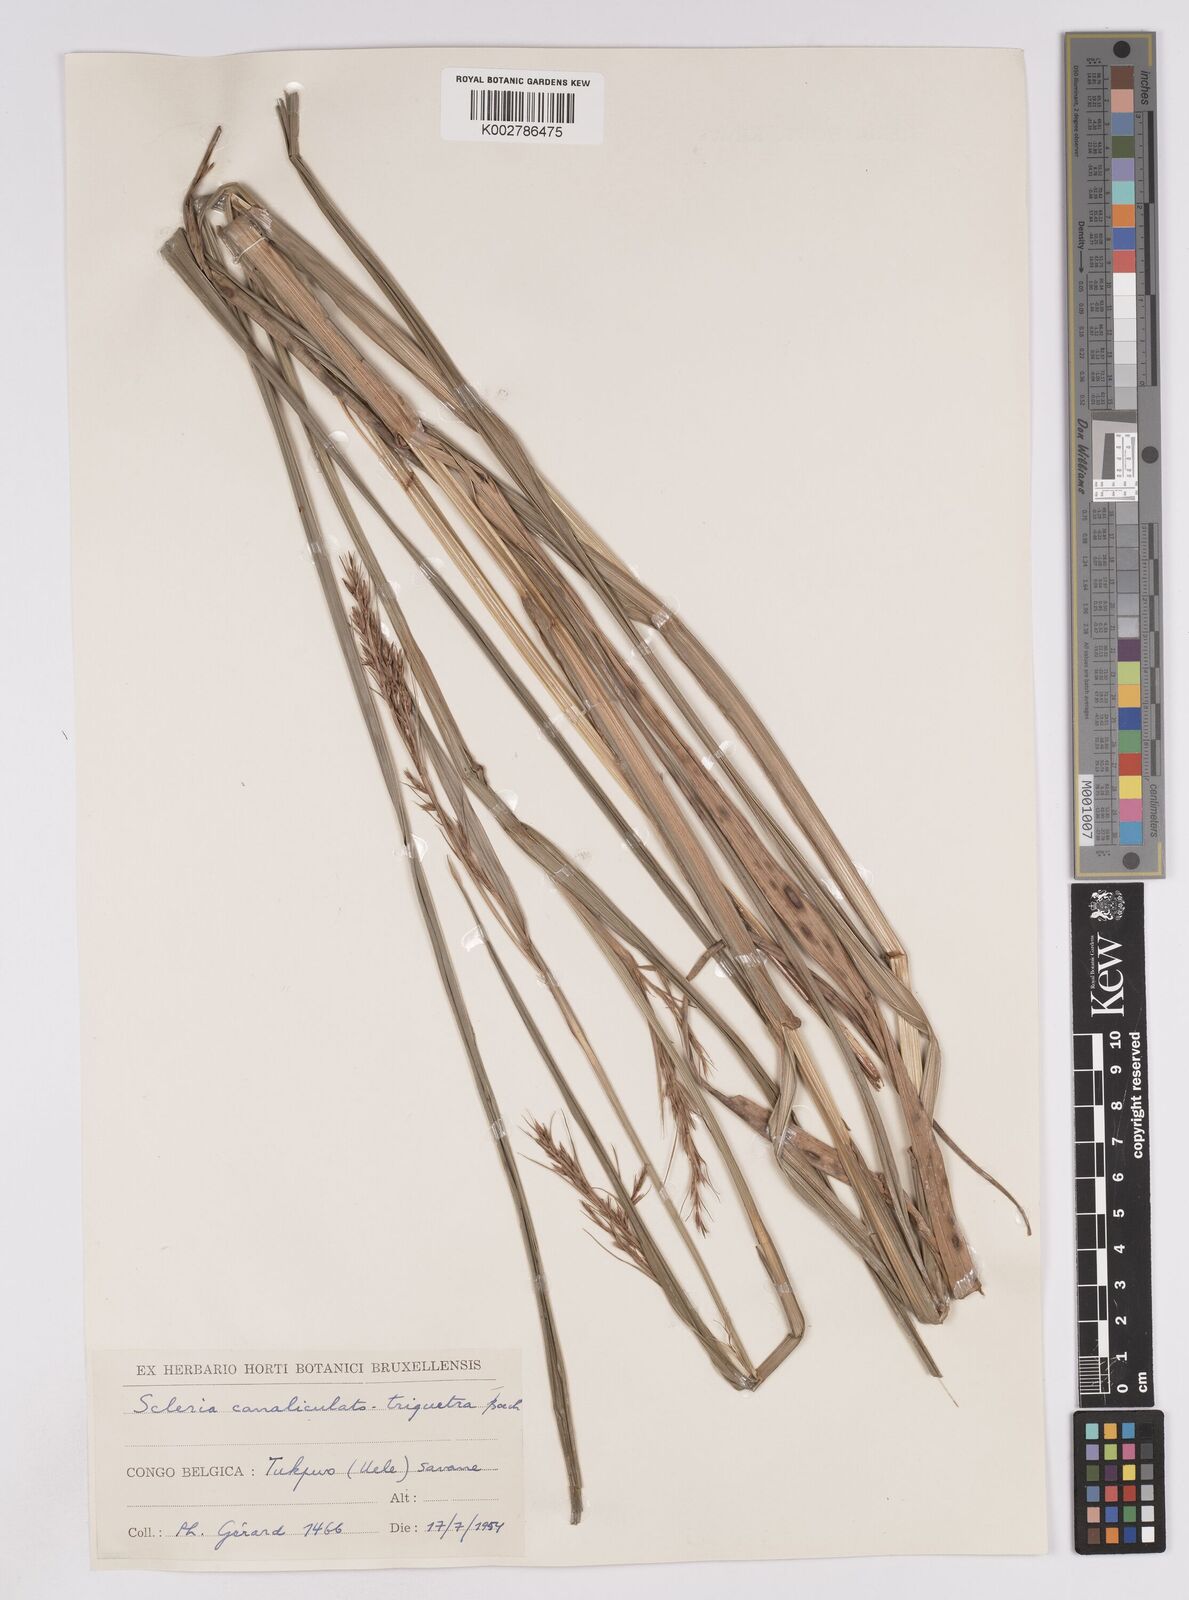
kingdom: Plantae
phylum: Tracheophyta
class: Liliopsida
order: Poales
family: Cyperaceae
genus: Scleria
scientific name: Scleria lagoensis
